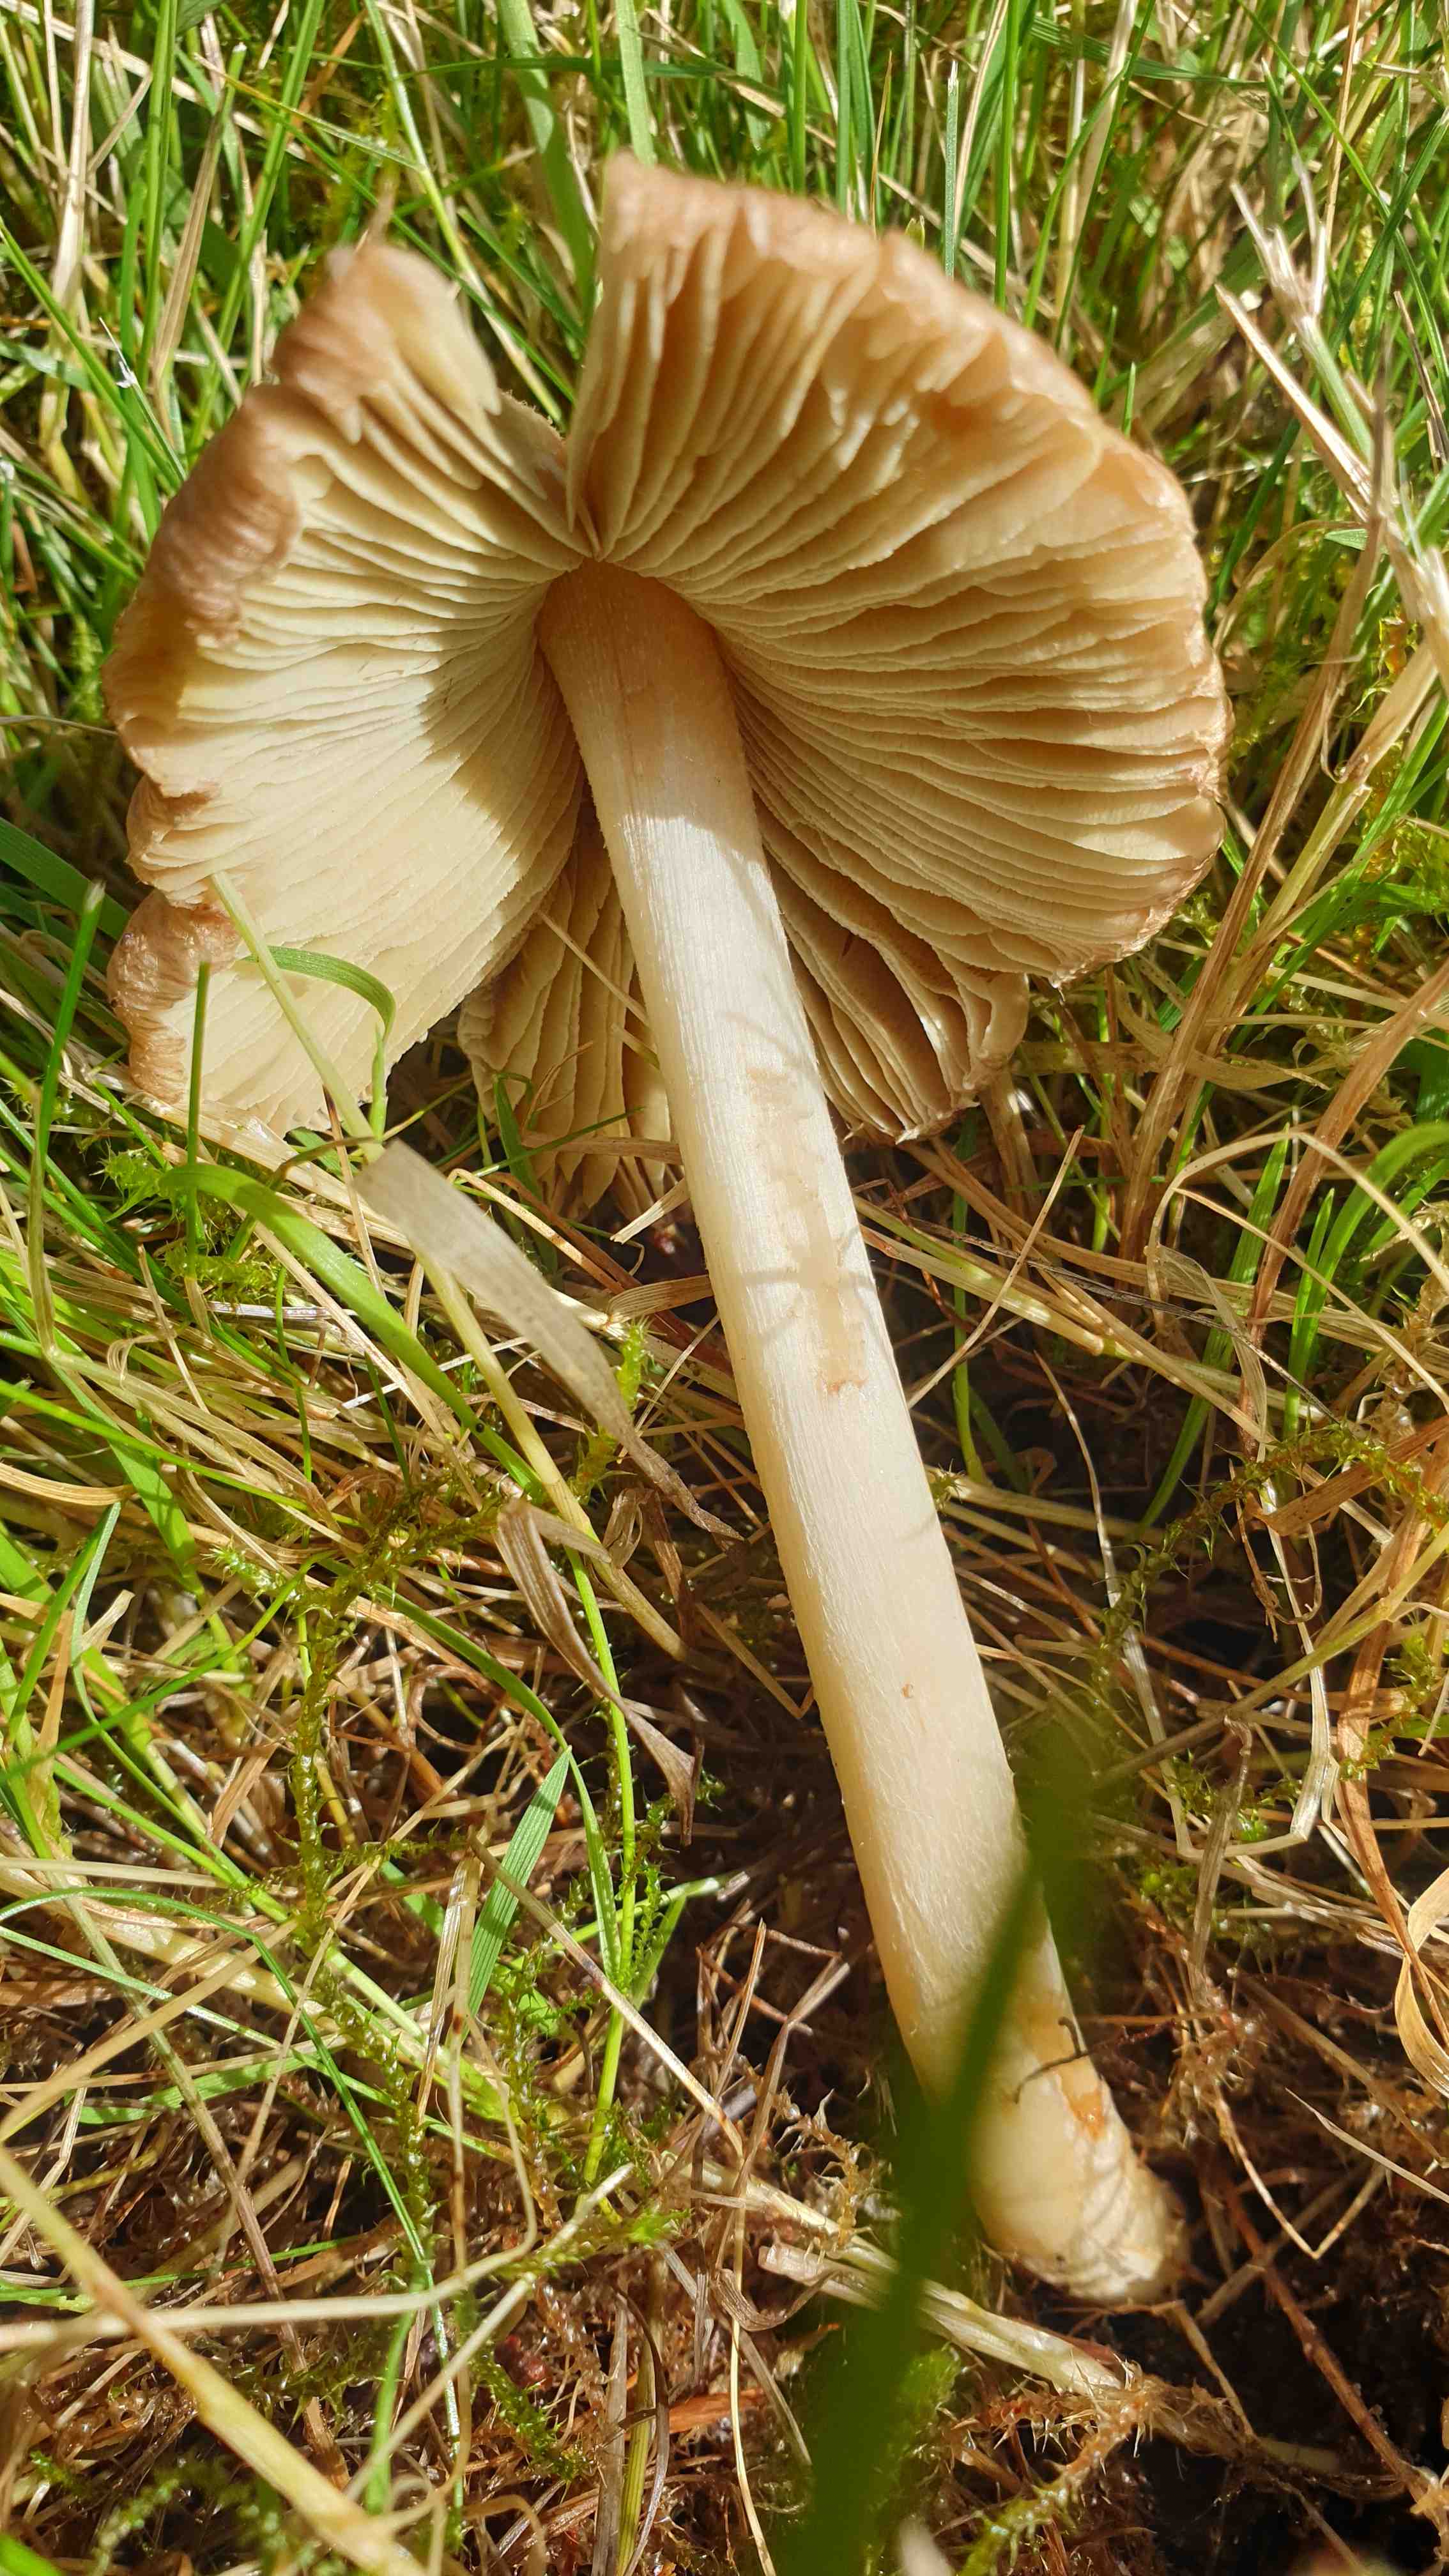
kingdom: Fungi
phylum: Basidiomycota
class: Agaricomycetes
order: Agaricales
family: Inocybaceae
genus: Pseudosperma
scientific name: Pseudosperma
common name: trævlhat
